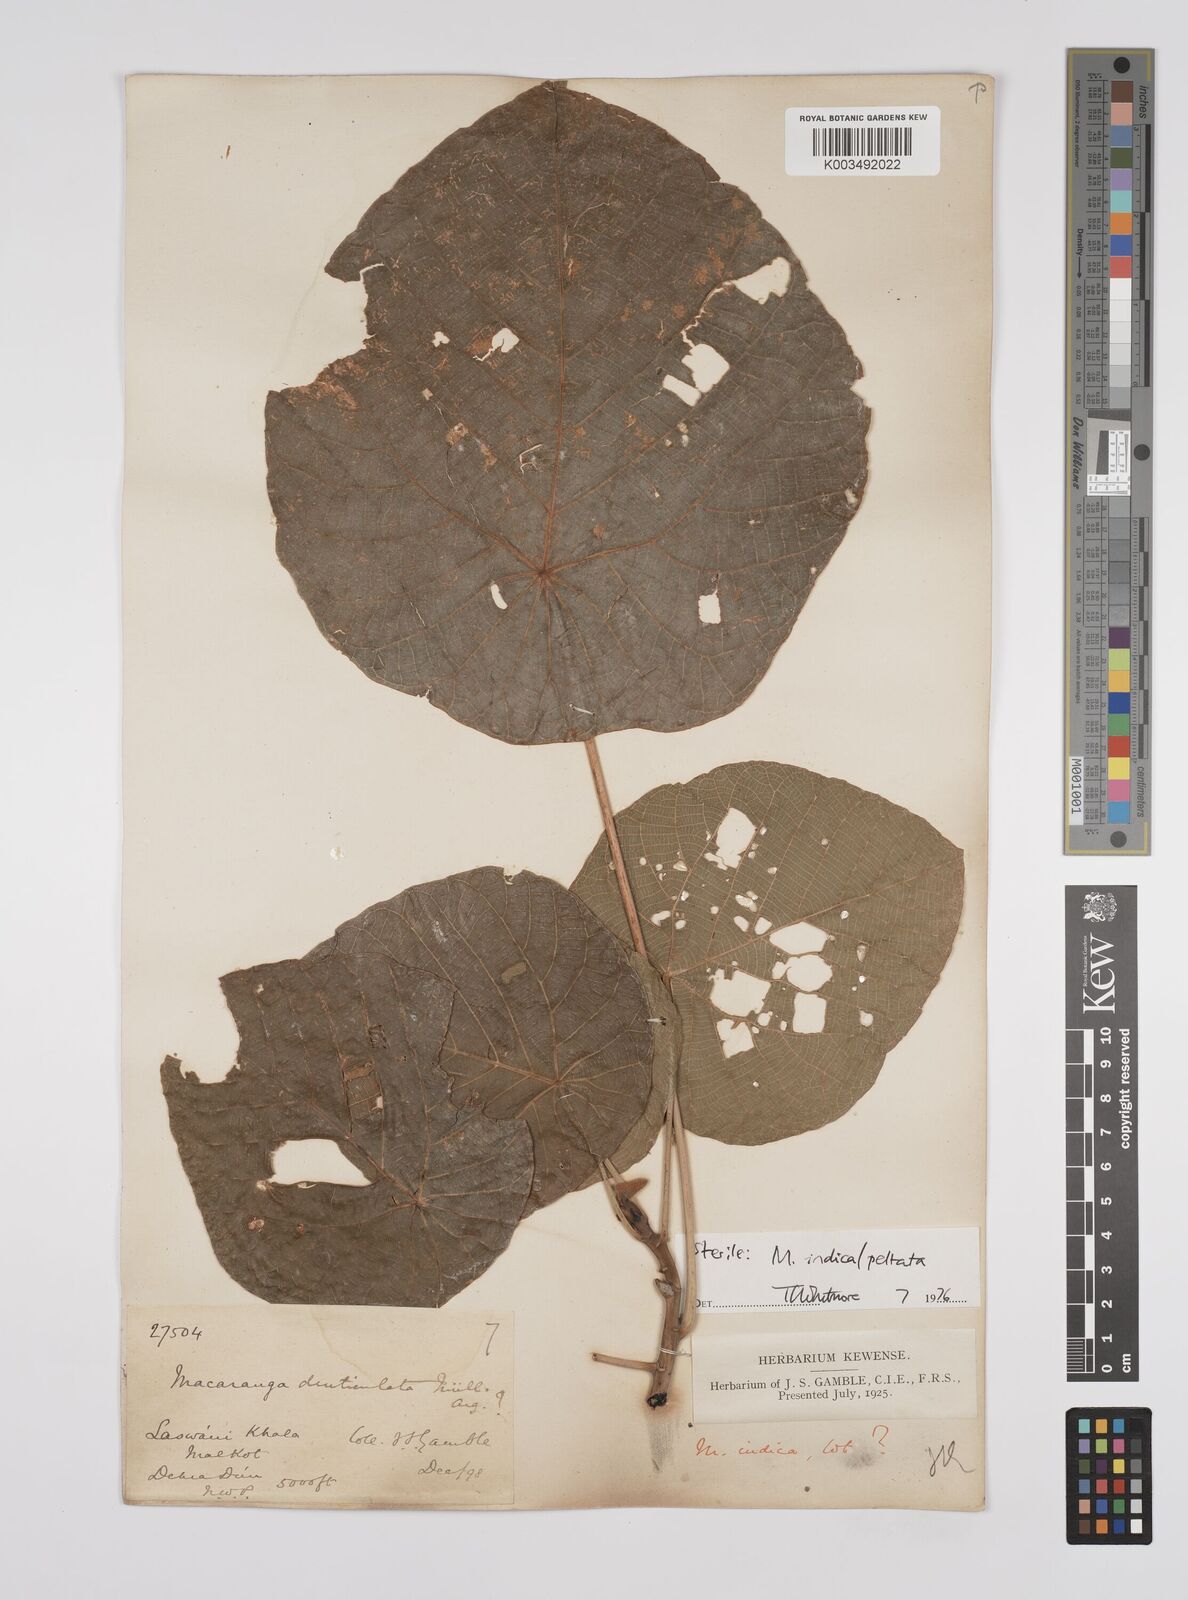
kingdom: Plantae
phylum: Tracheophyta
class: Magnoliopsida
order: Malpighiales
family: Euphorbiaceae
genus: Macaranga
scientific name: Macaranga indica
